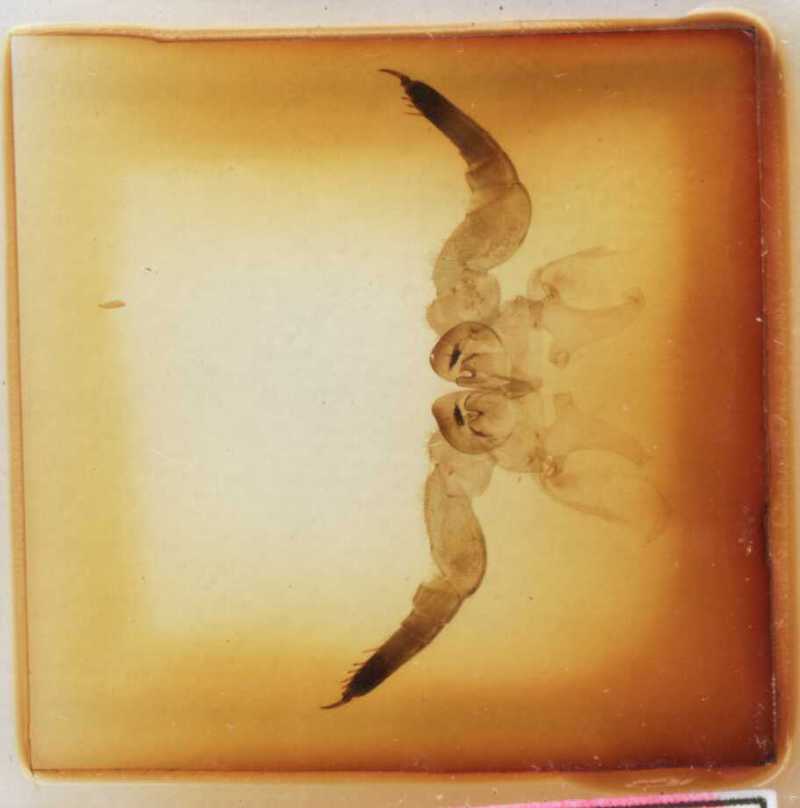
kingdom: Animalia
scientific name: Animalia
